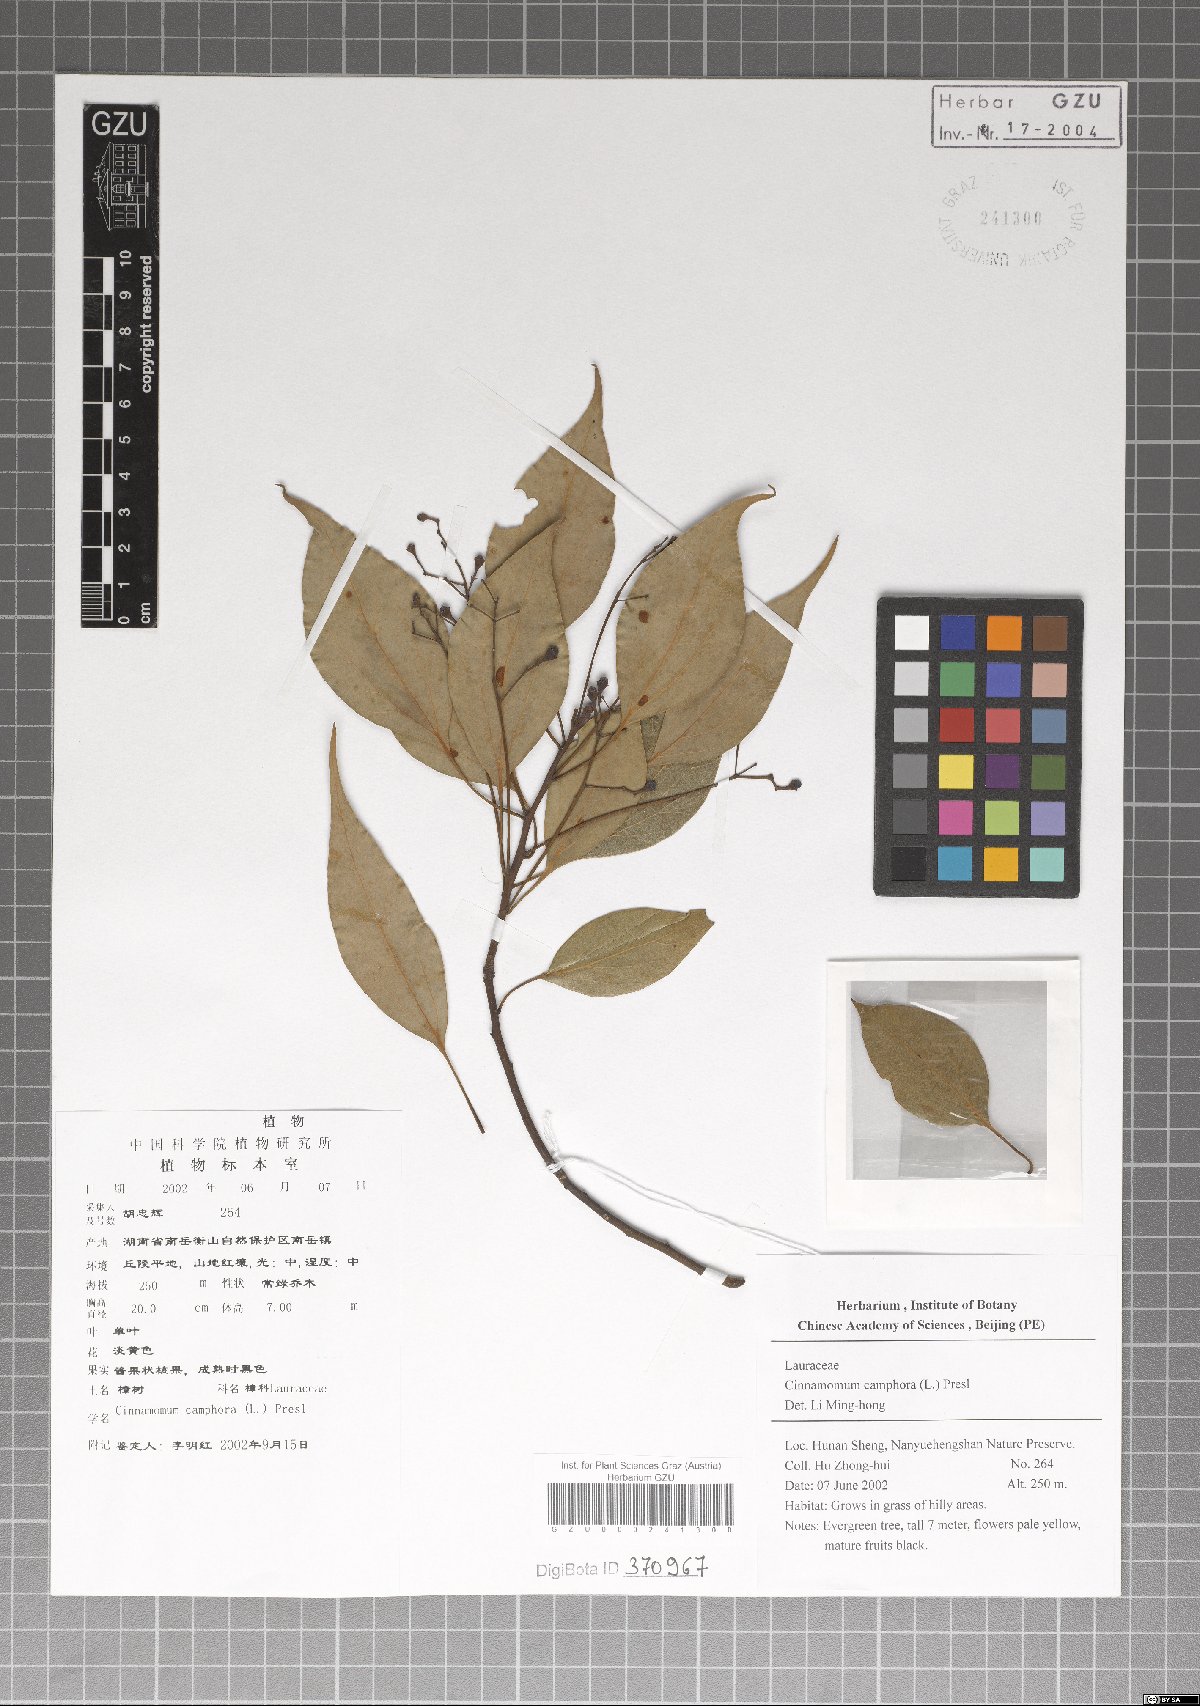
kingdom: Plantae
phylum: Tracheophyta
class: Magnoliopsida
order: Laurales
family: Lauraceae
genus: Cinnamomum
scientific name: Cinnamomum camphora
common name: Camphortree
